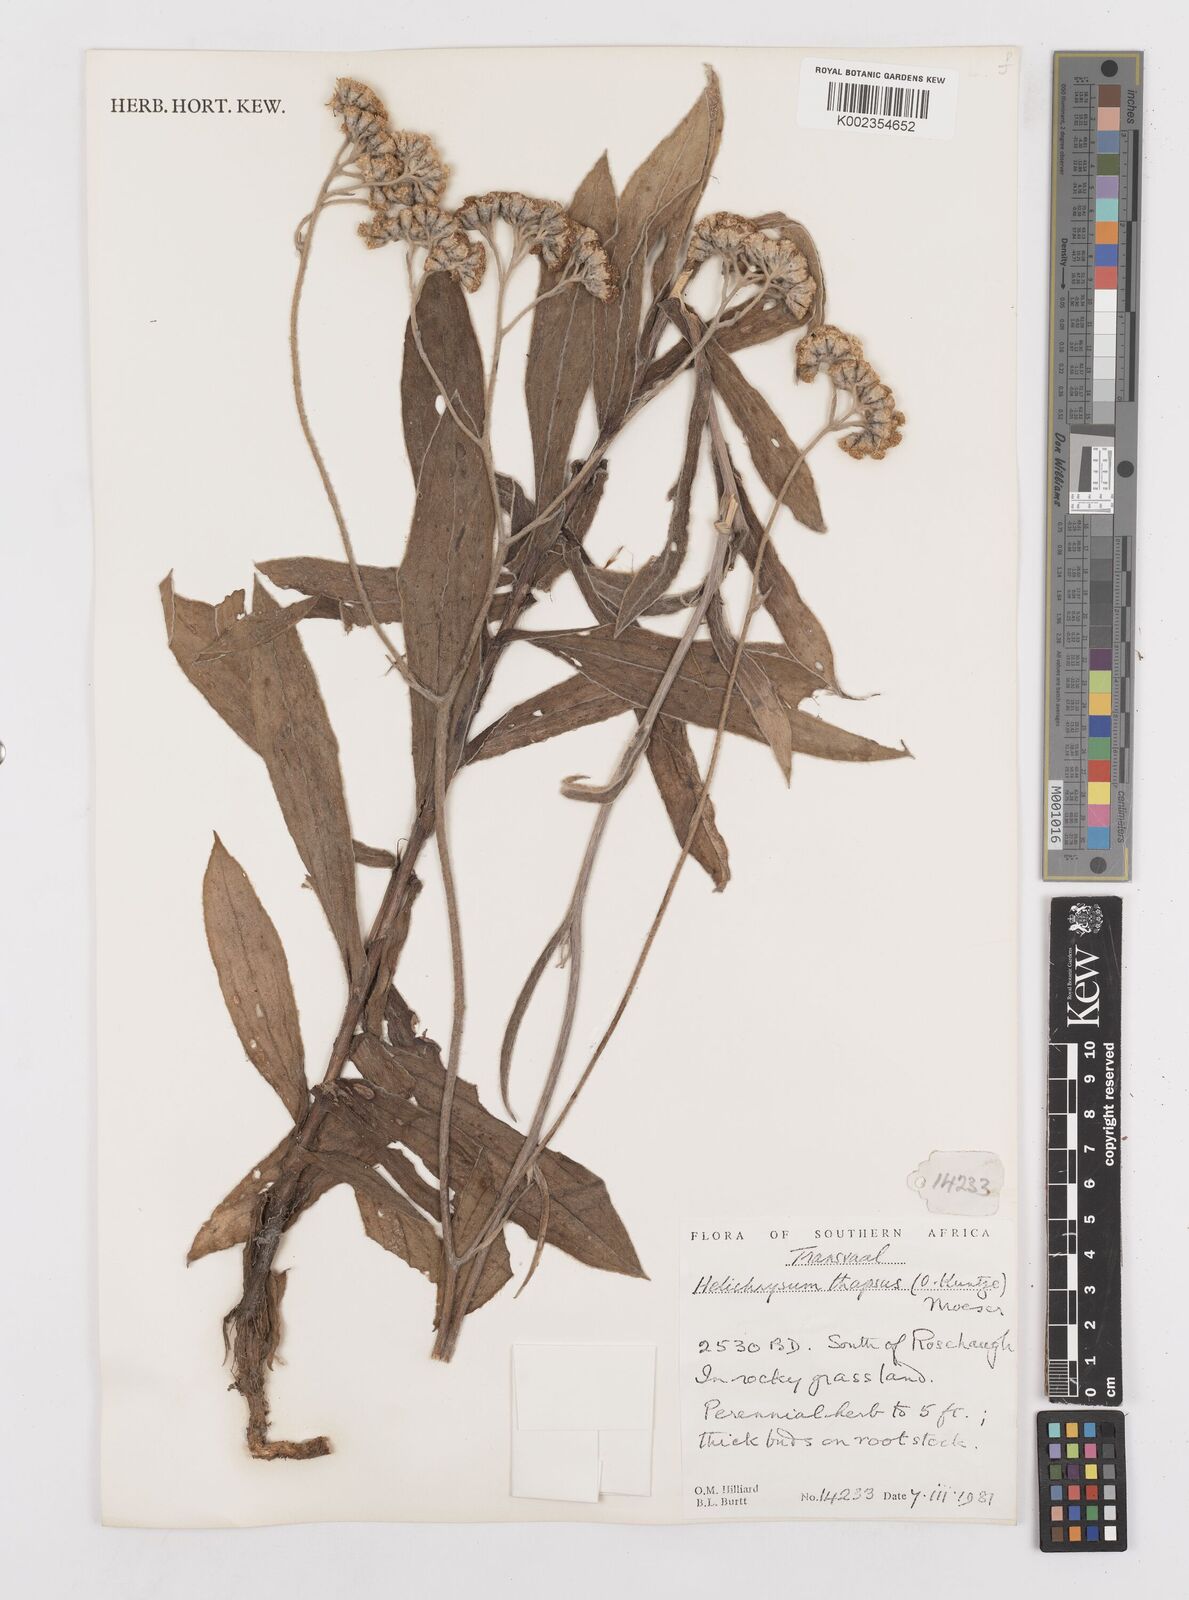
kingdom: Plantae
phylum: Tracheophyta
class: Magnoliopsida
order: Asterales
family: Asteraceae
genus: Helichrysum
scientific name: Helichrysum thapsus
